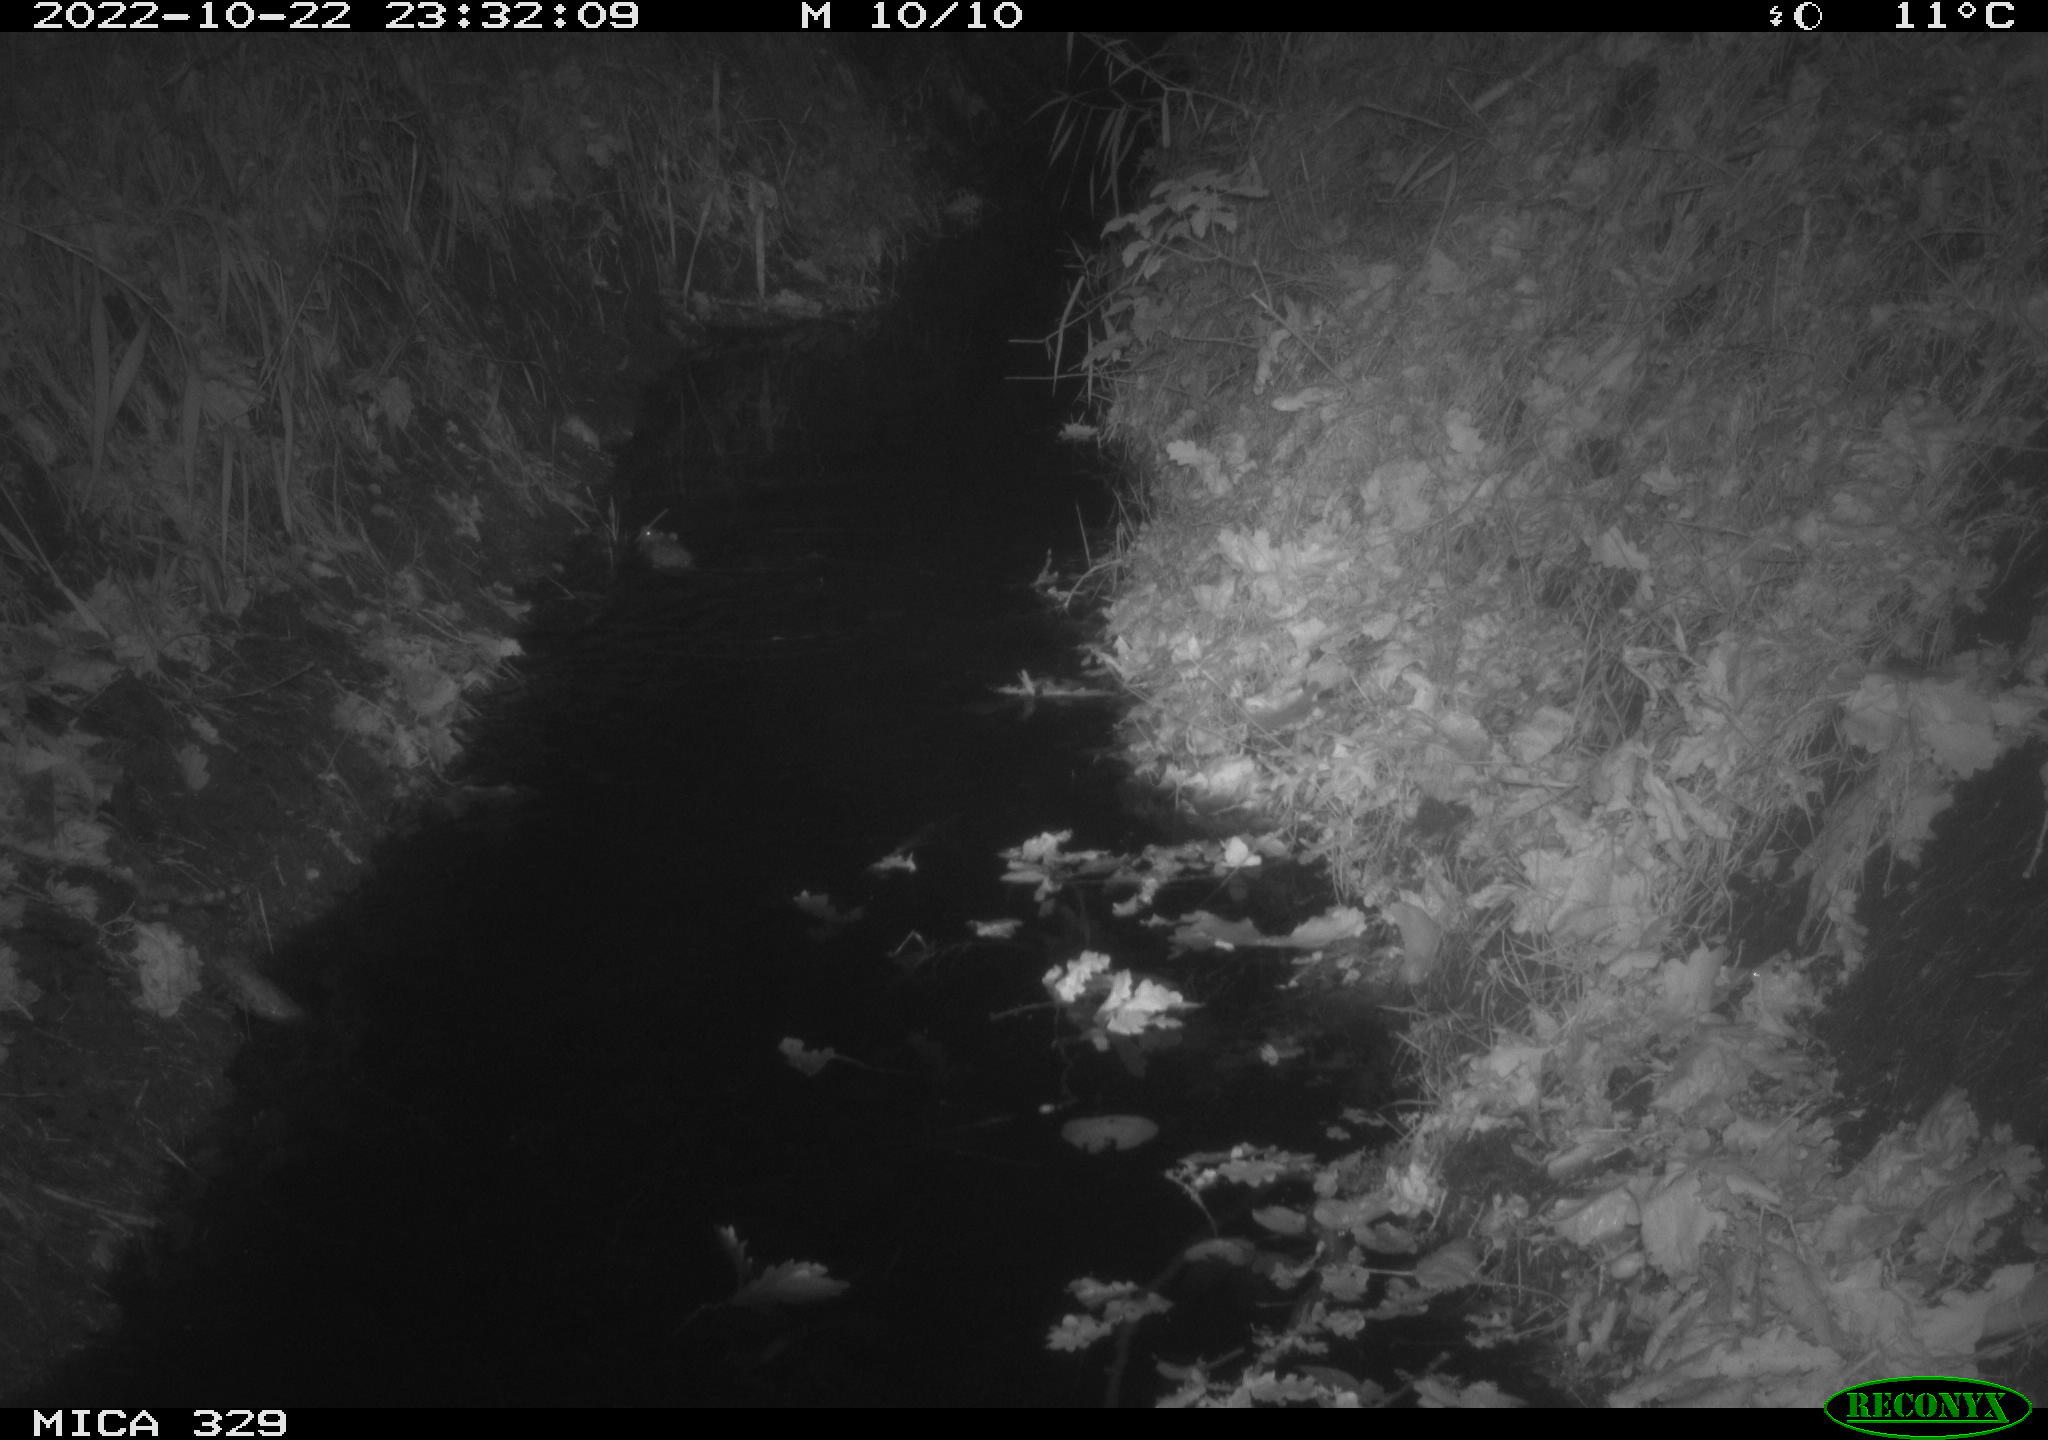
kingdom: Animalia
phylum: Chordata
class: Mammalia
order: Rodentia
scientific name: Rodentia
